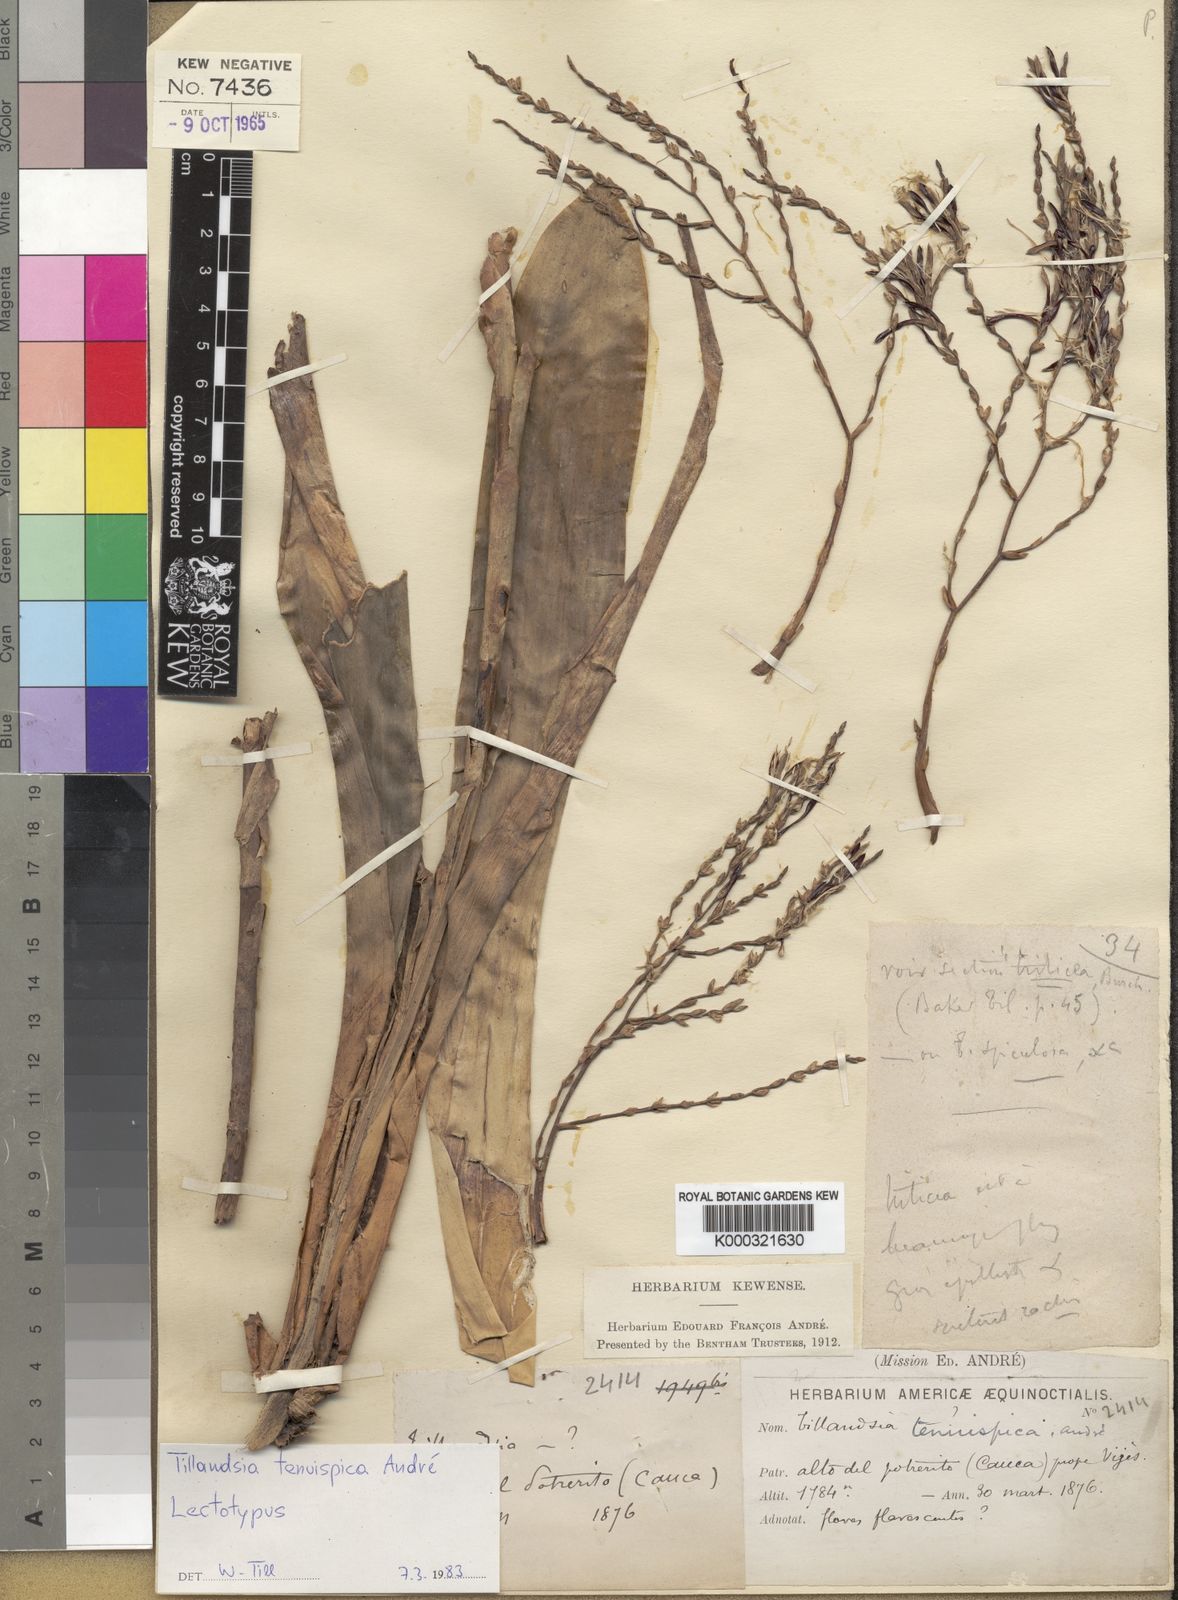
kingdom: Plantae
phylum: Tracheophyta
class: Liliopsida
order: Poales
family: Bromeliaceae
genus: Tillandsia
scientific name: Tillandsia
